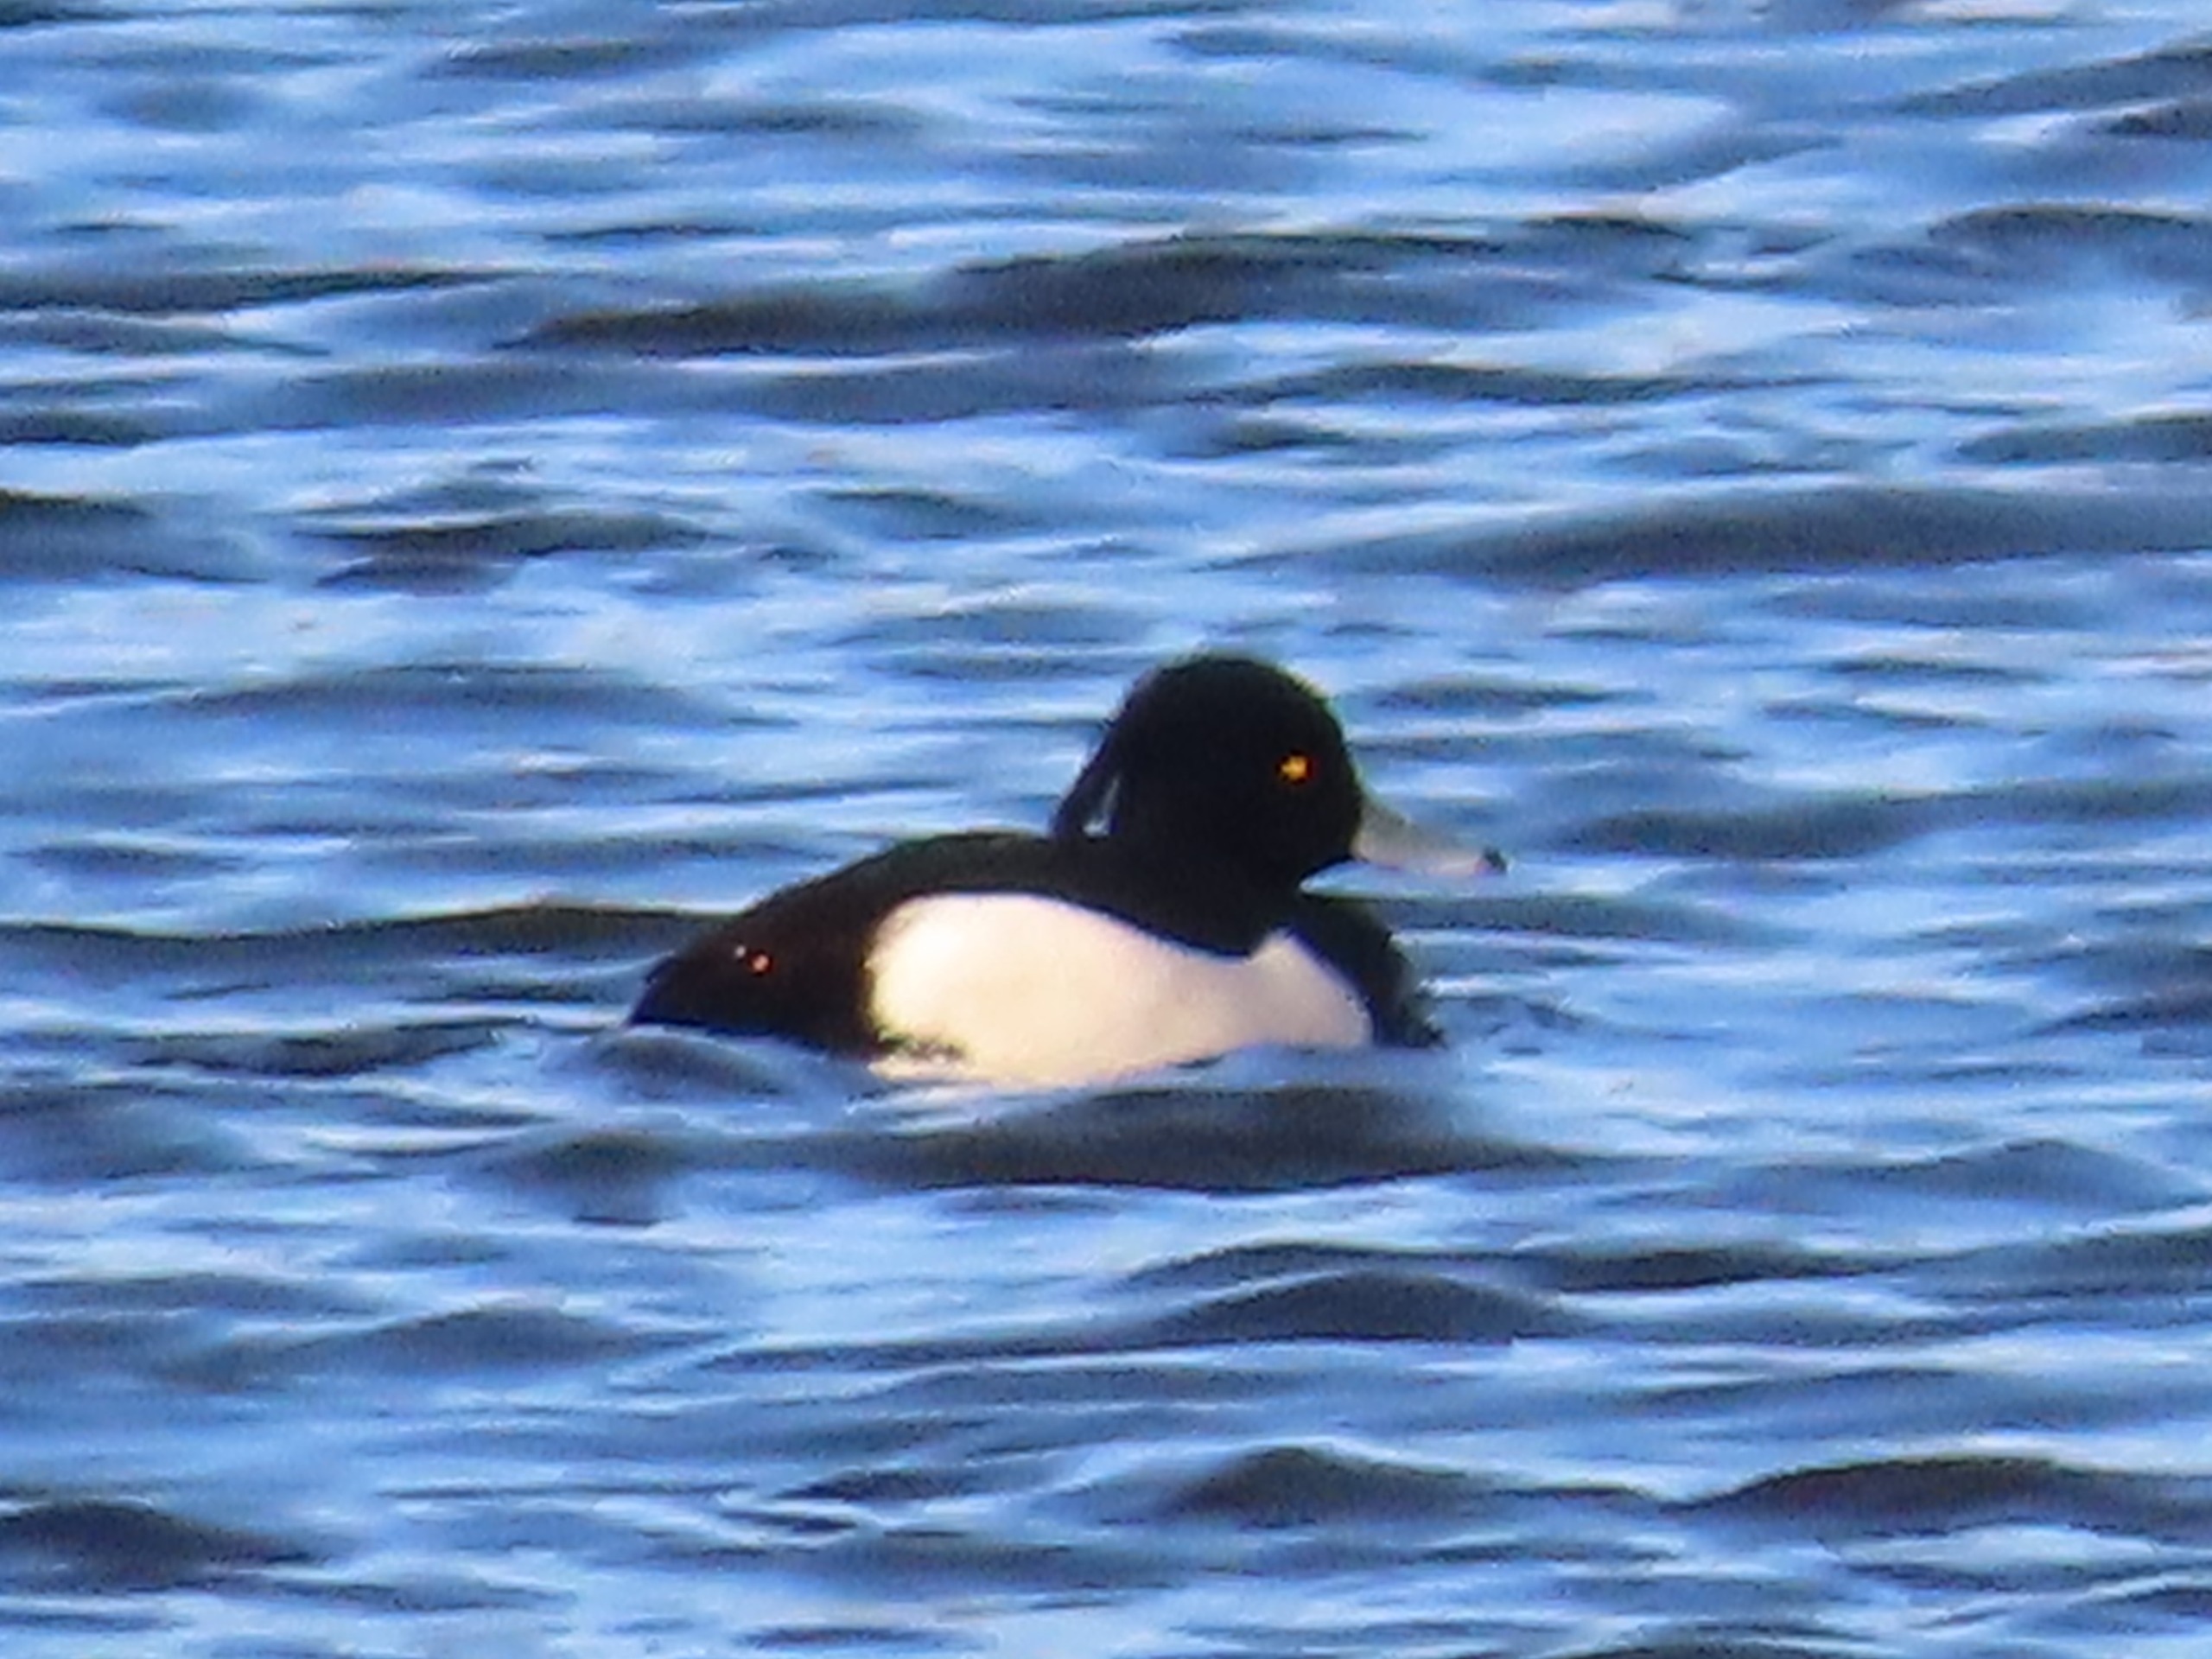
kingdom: Animalia
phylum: Chordata
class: Aves
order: Anseriformes
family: Anatidae
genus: Aythya
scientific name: Aythya fuligula
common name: Troldand
